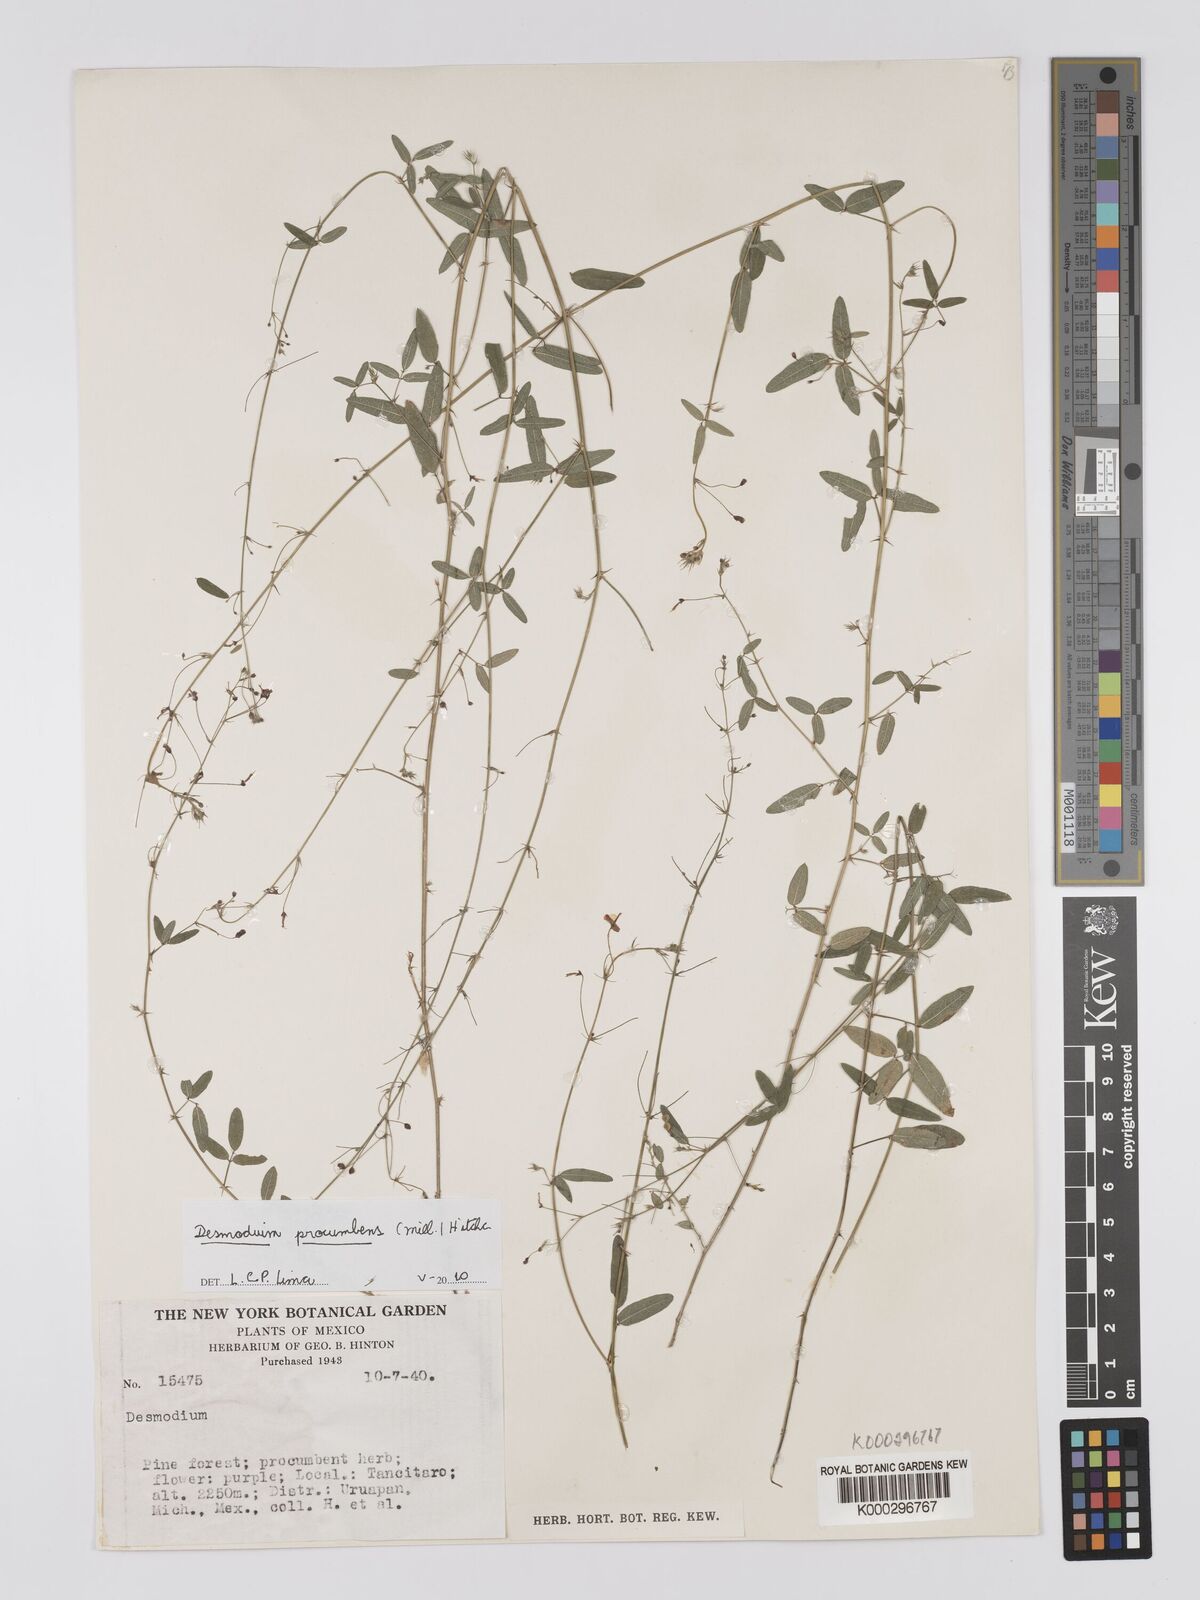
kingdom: Plantae
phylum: Tracheophyta
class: Magnoliopsida
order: Fabales
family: Fabaceae
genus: Desmodium
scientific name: Desmodium procumbens
